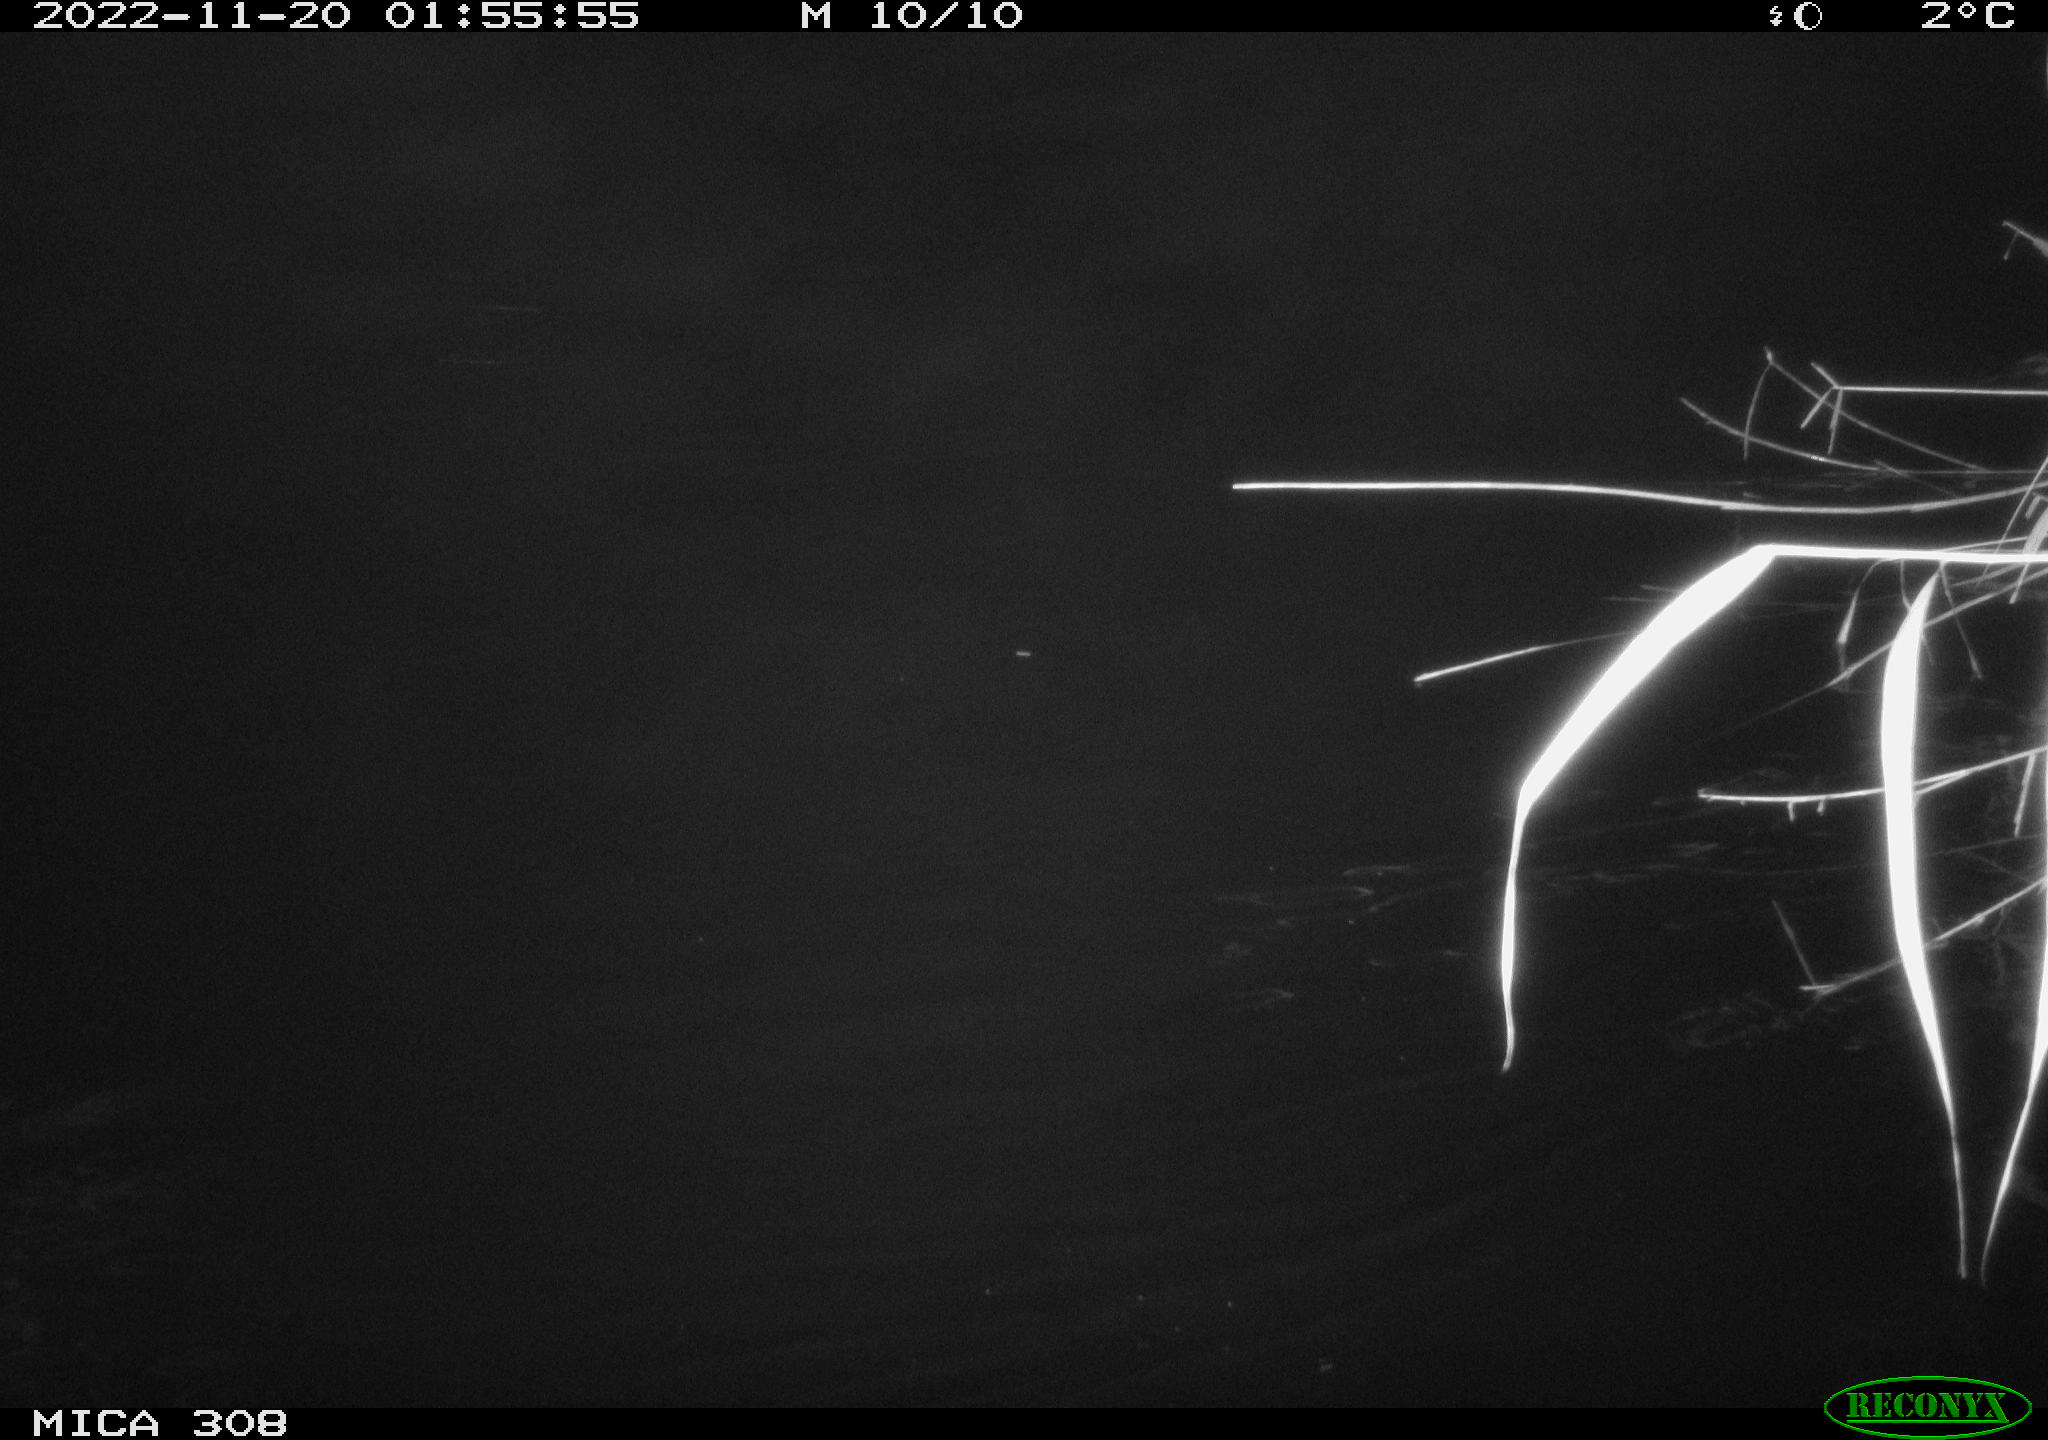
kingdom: Animalia
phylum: Chordata
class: Mammalia
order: Rodentia
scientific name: Rodentia
